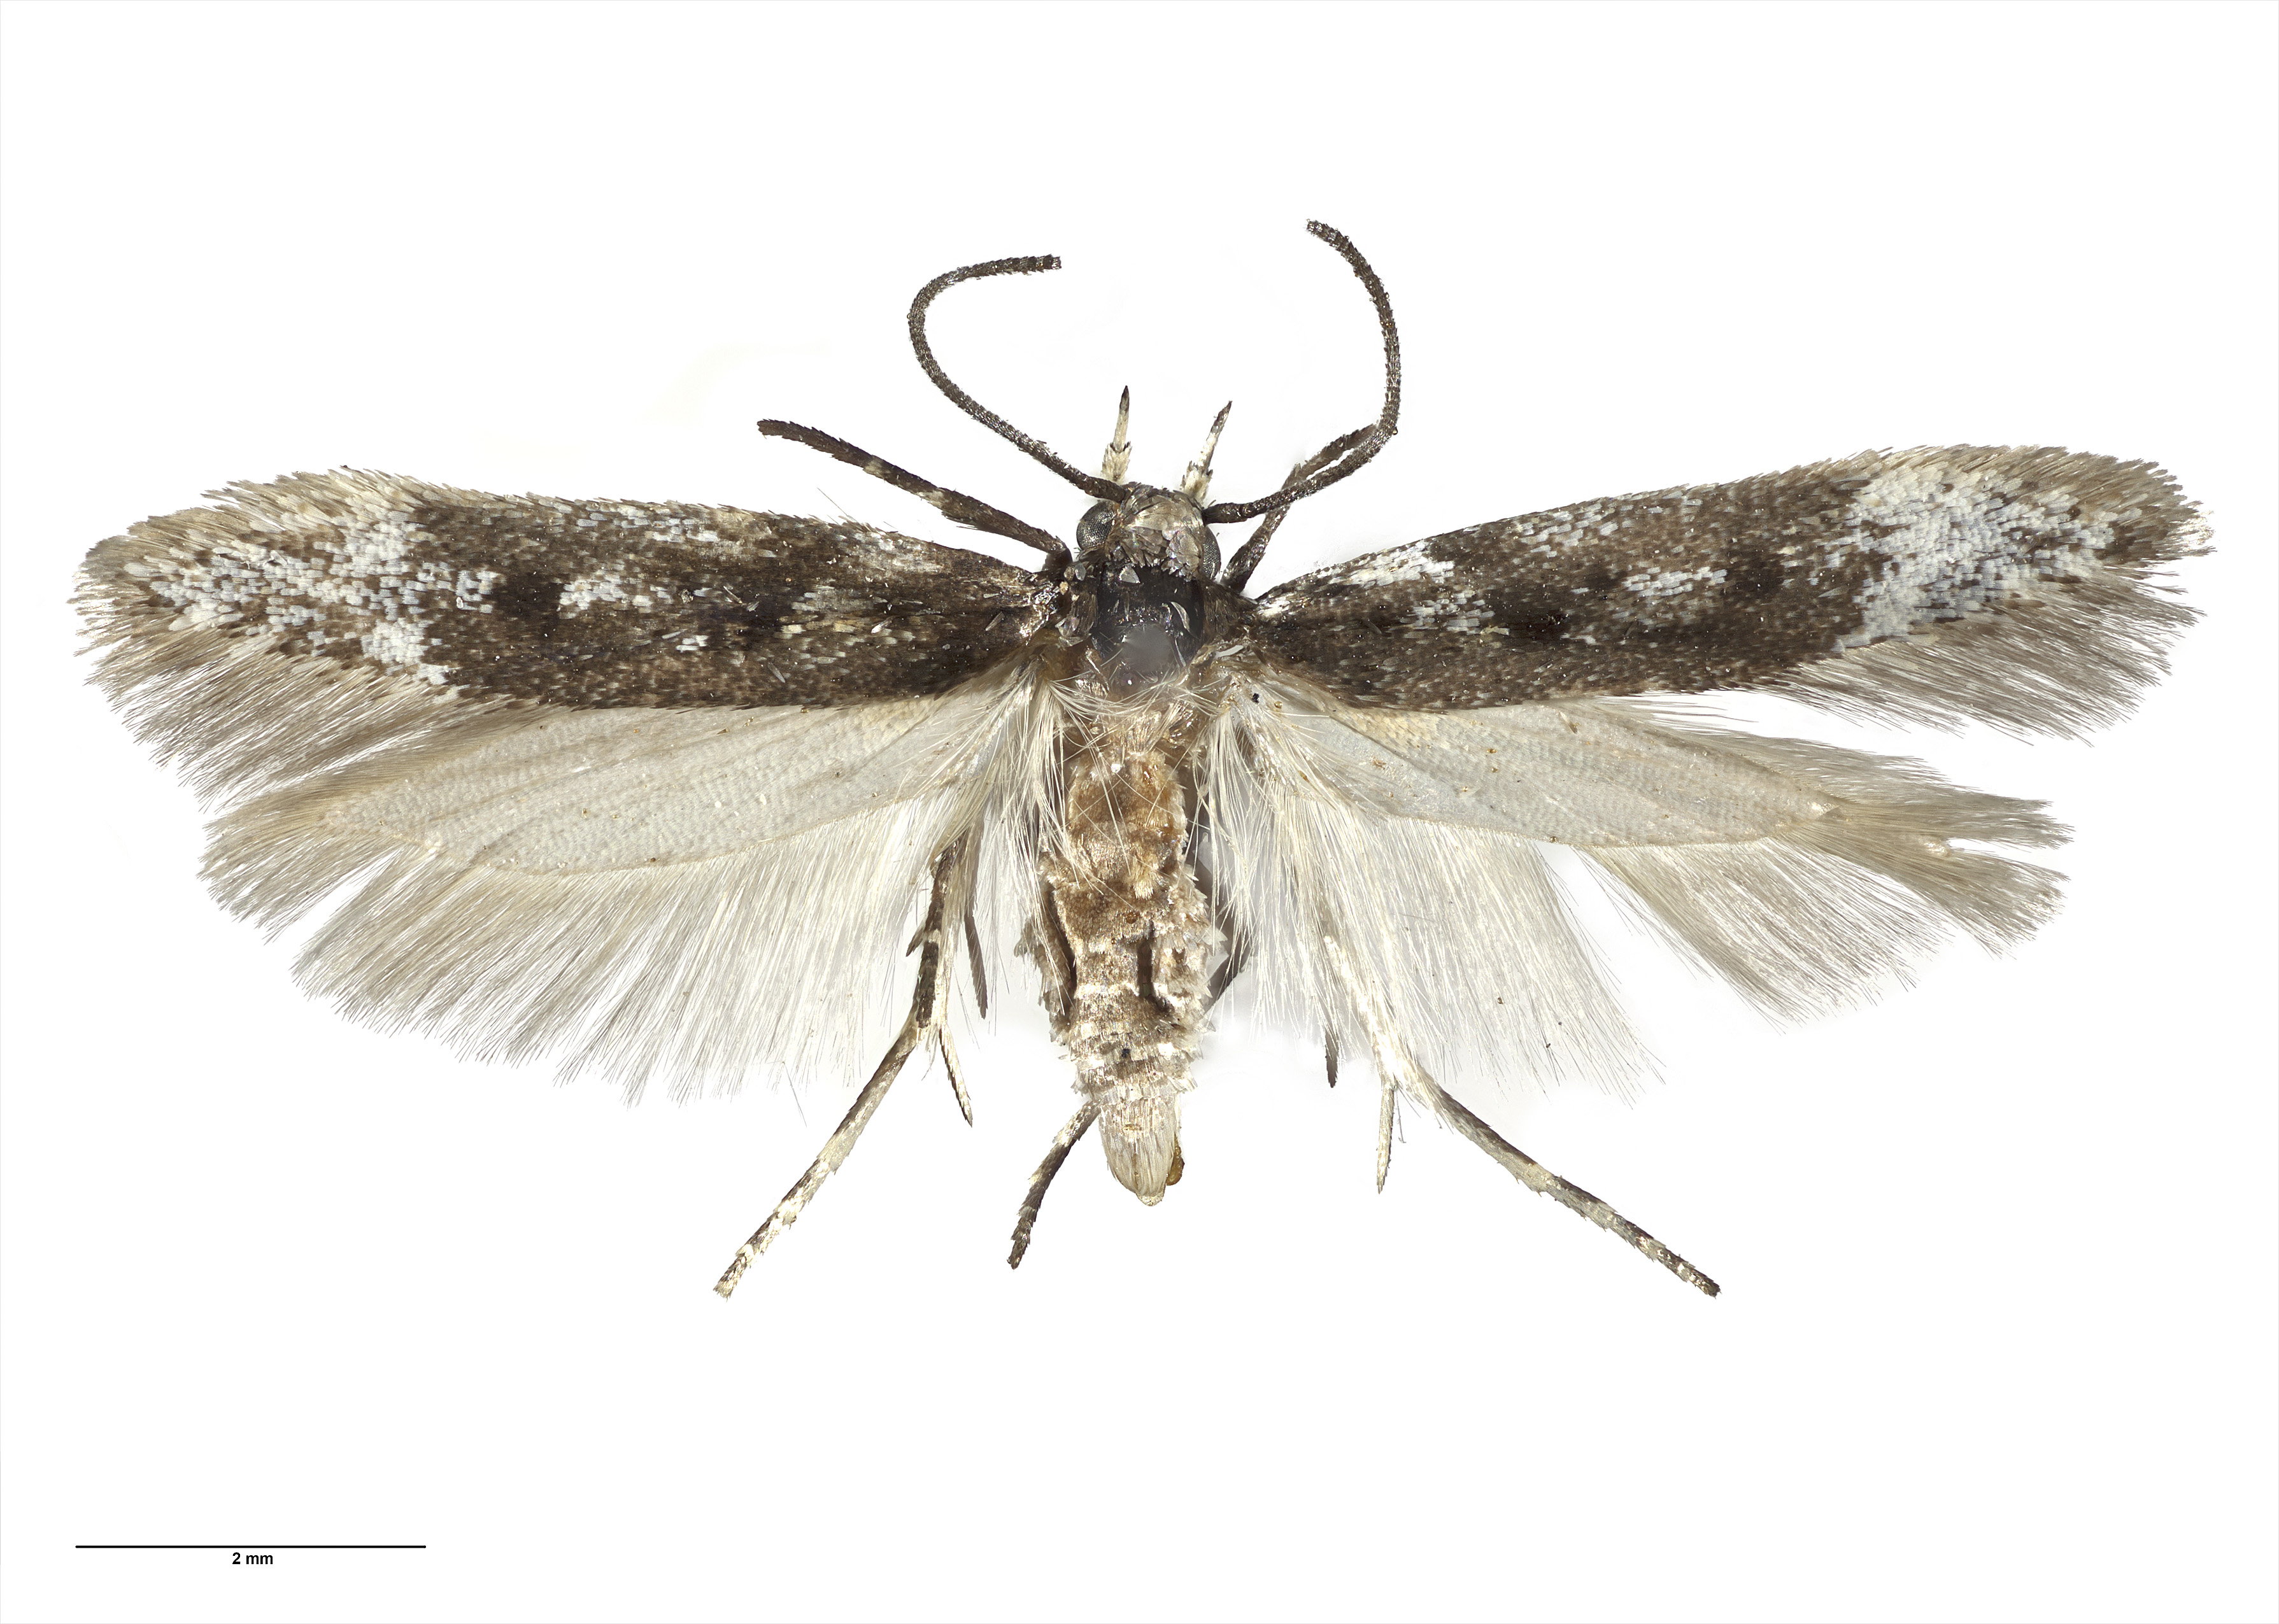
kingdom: Animalia
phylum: Arthropoda
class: Insecta
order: Lepidoptera
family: Gelechiidae
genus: Kiwaia
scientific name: Kiwaia caerulea
